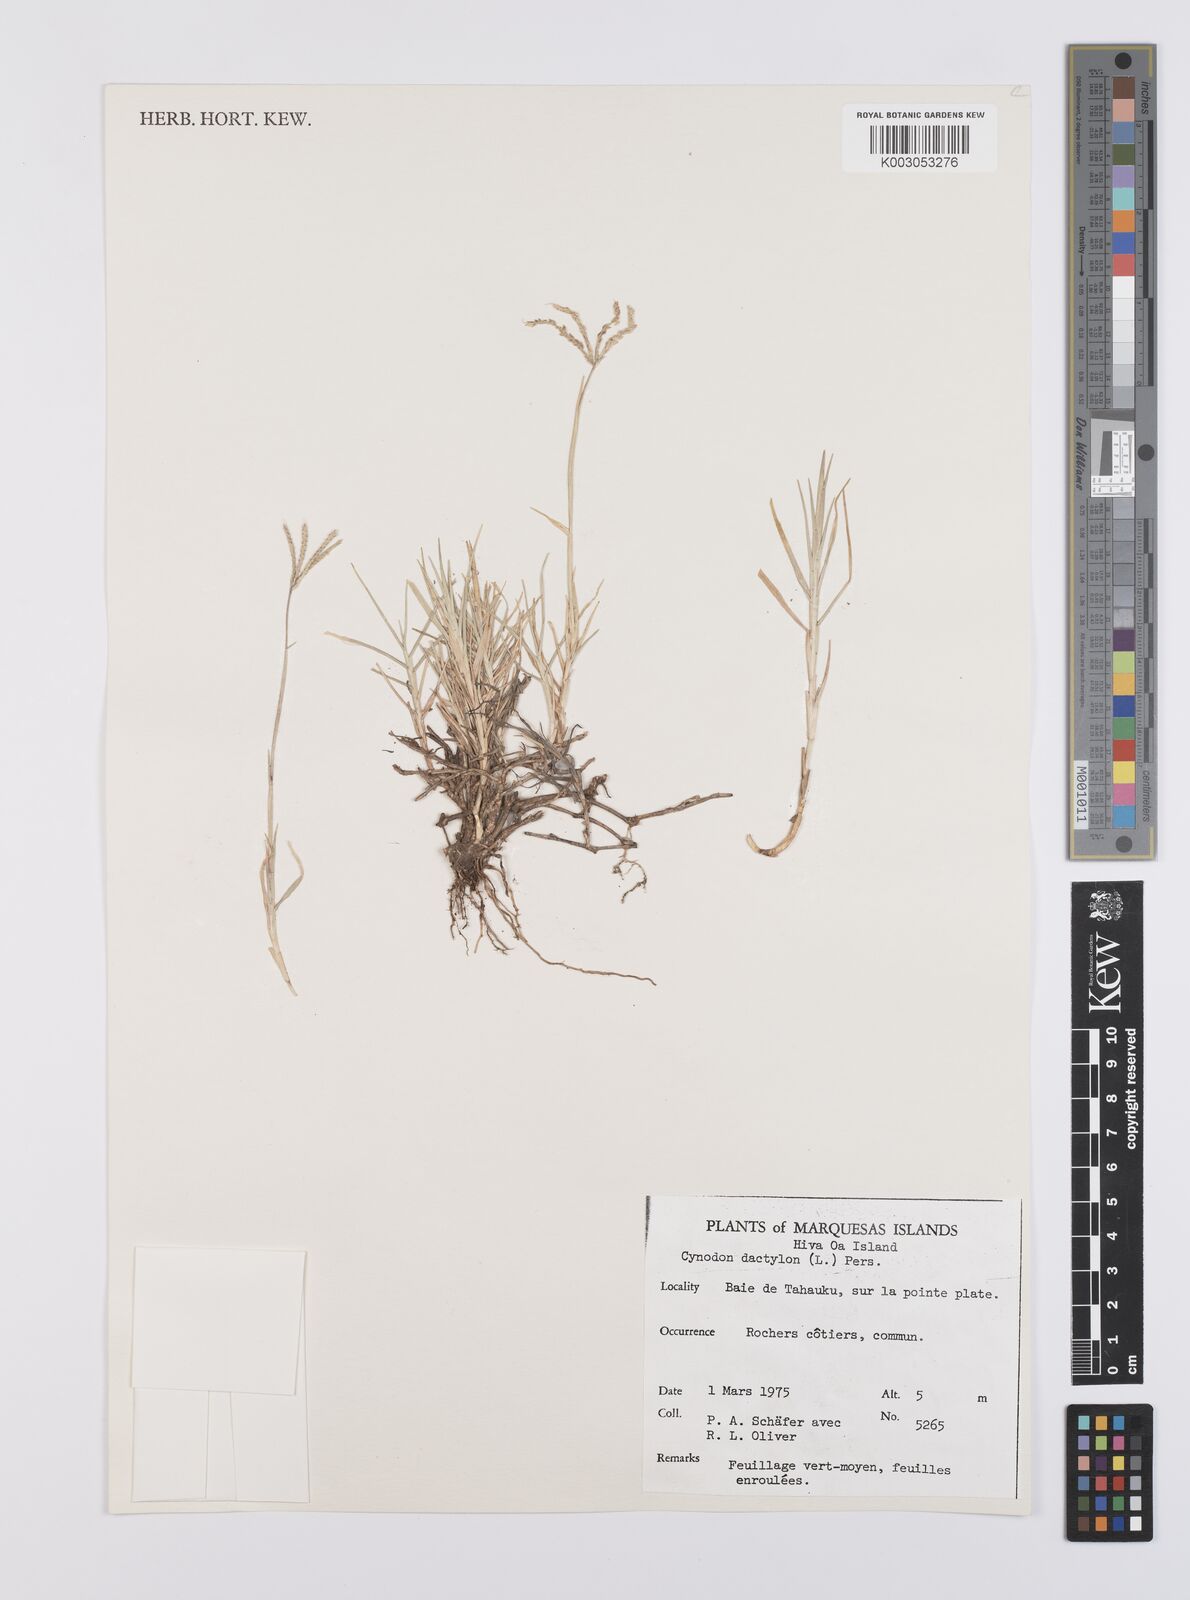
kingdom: Plantae
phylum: Tracheophyta
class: Liliopsida
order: Poales
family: Poaceae
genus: Cynodon
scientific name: Cynodon dactylon
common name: Bermuda grass
